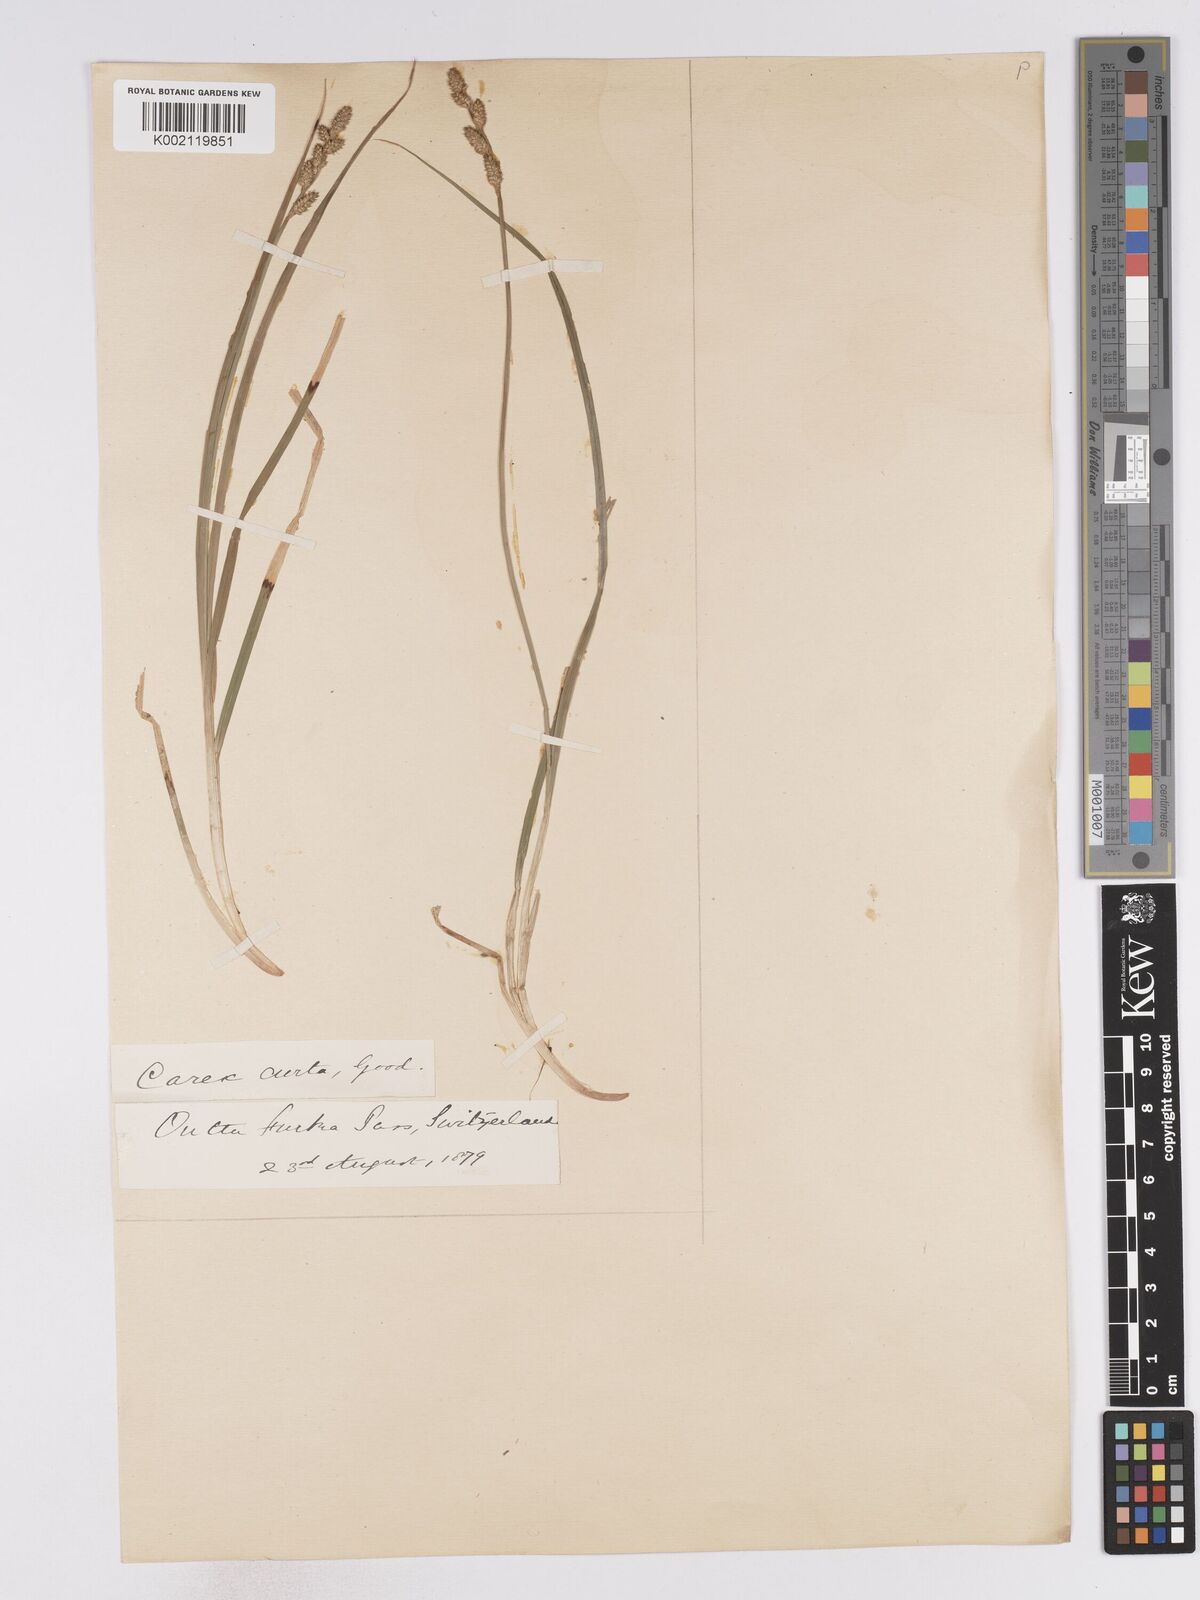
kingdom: Plantae
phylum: Tracheophyta
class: Liliopsida
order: Poales
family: Cyperaceae
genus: Carex
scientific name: Carex curta
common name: White sedge
